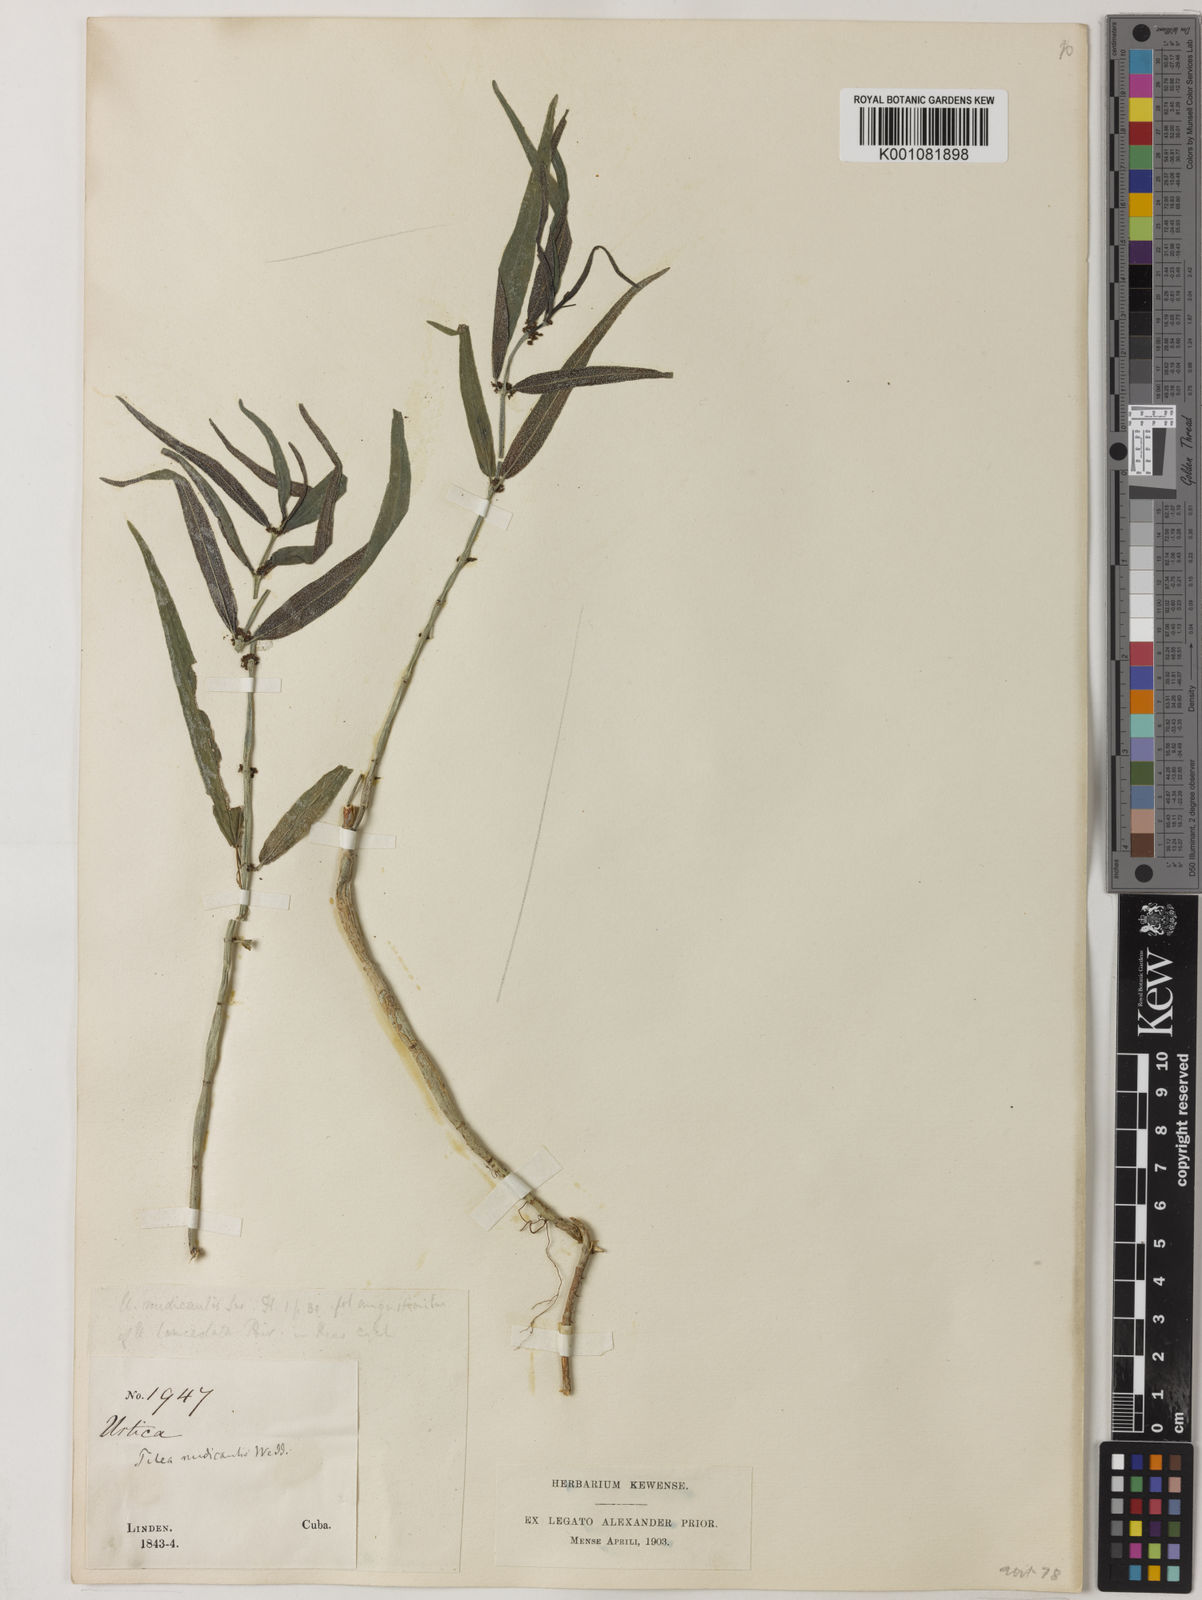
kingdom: Plantae
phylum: Tracheophyta
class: Magnoliopsida
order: Rosales
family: Urticaceae
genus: Pilea
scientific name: Pilea nudicaulis
